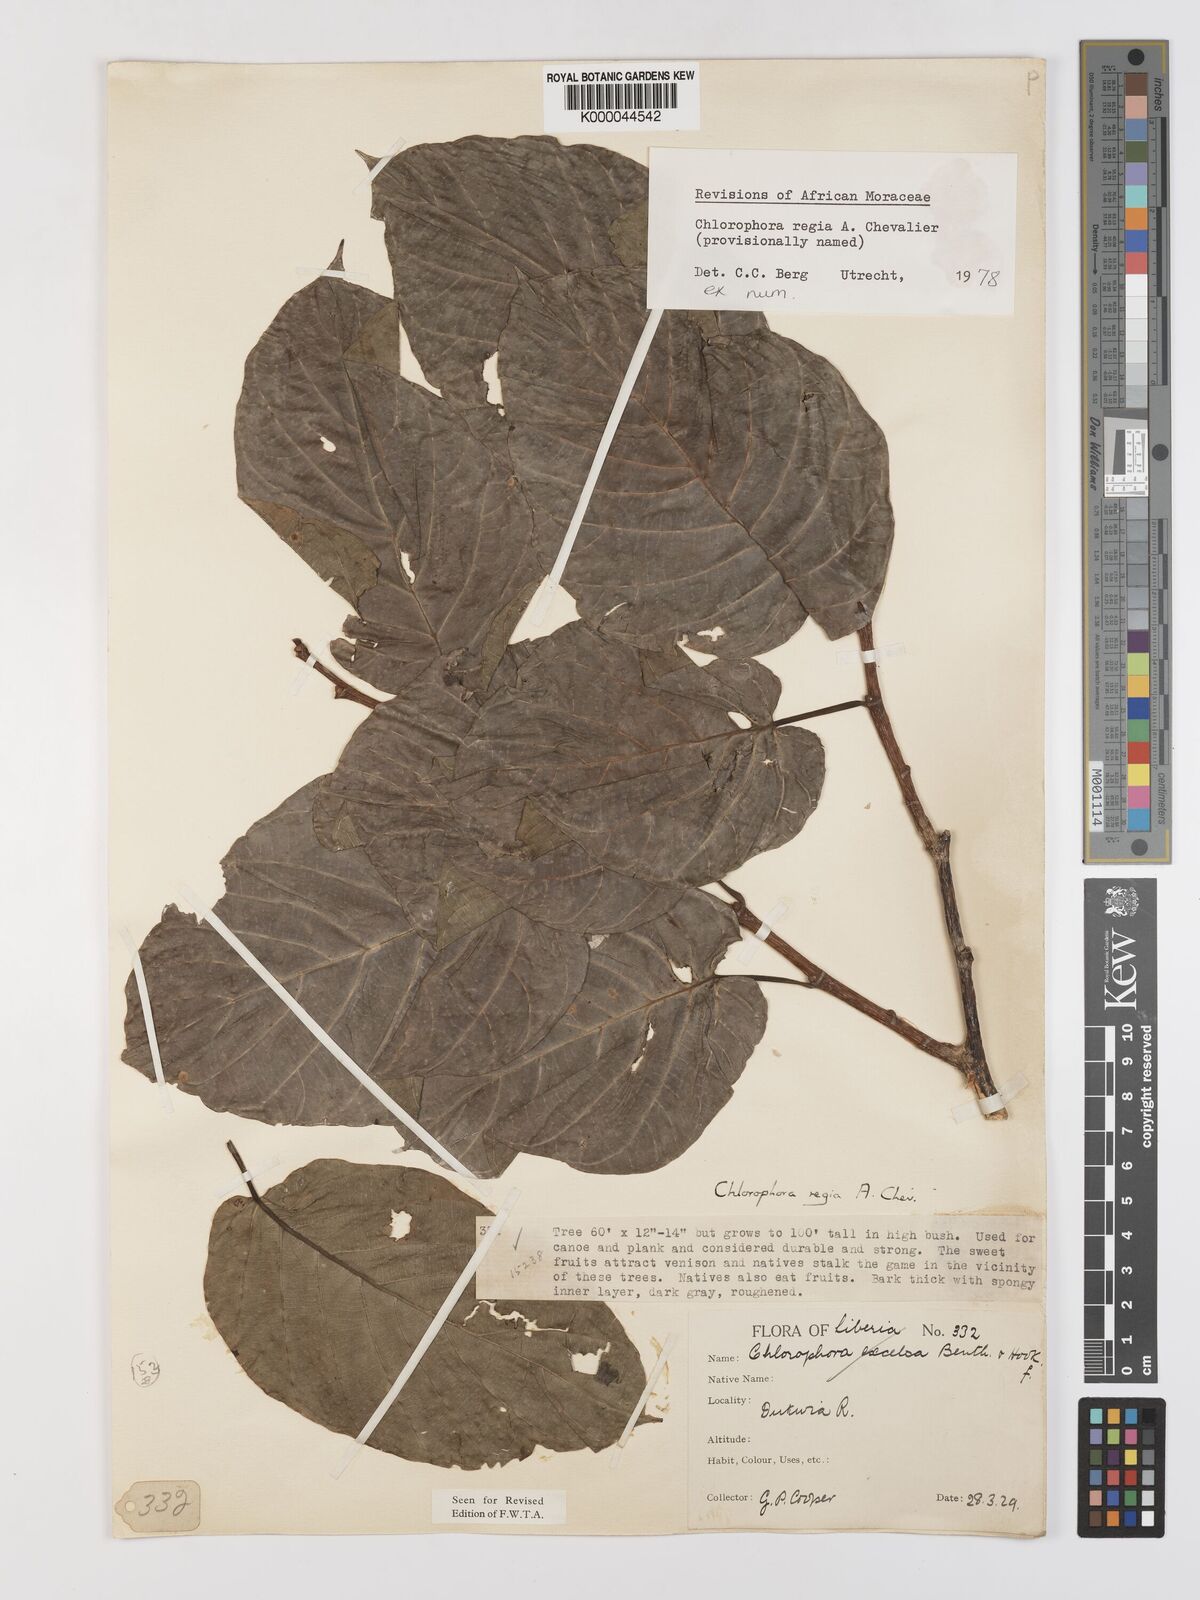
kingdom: Plantae
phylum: Tracheophyta
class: Magnoliopsida
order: Rosales
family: Moraceae
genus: Milicia
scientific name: Milicia regia
